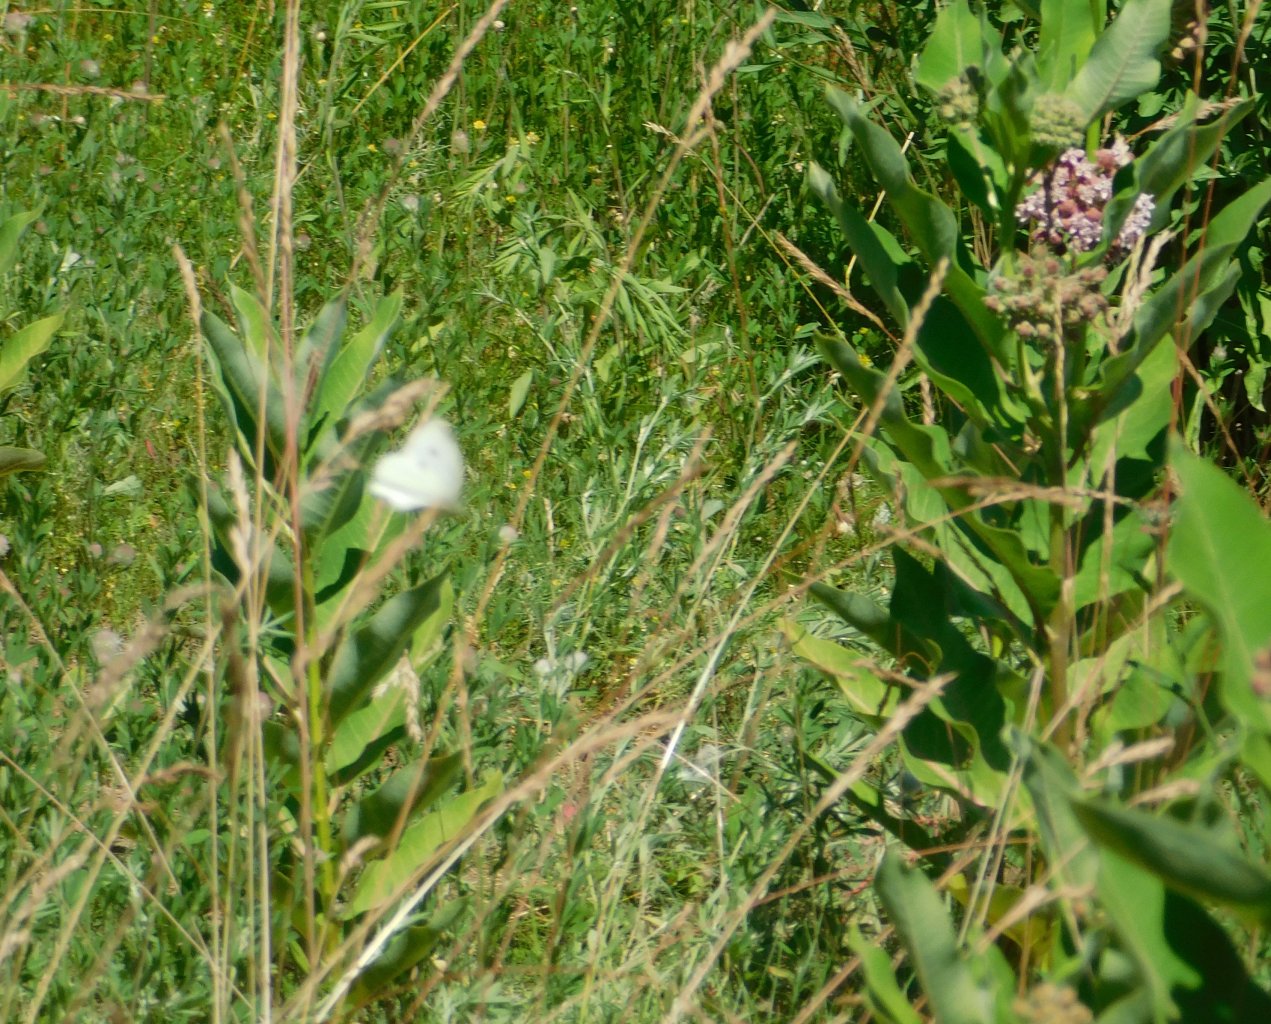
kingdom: Animalia
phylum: Arthropoda
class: Insecta
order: Lepidoptera
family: Pieridae
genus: Pieris
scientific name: Pieris rapae
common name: Cabbage White
